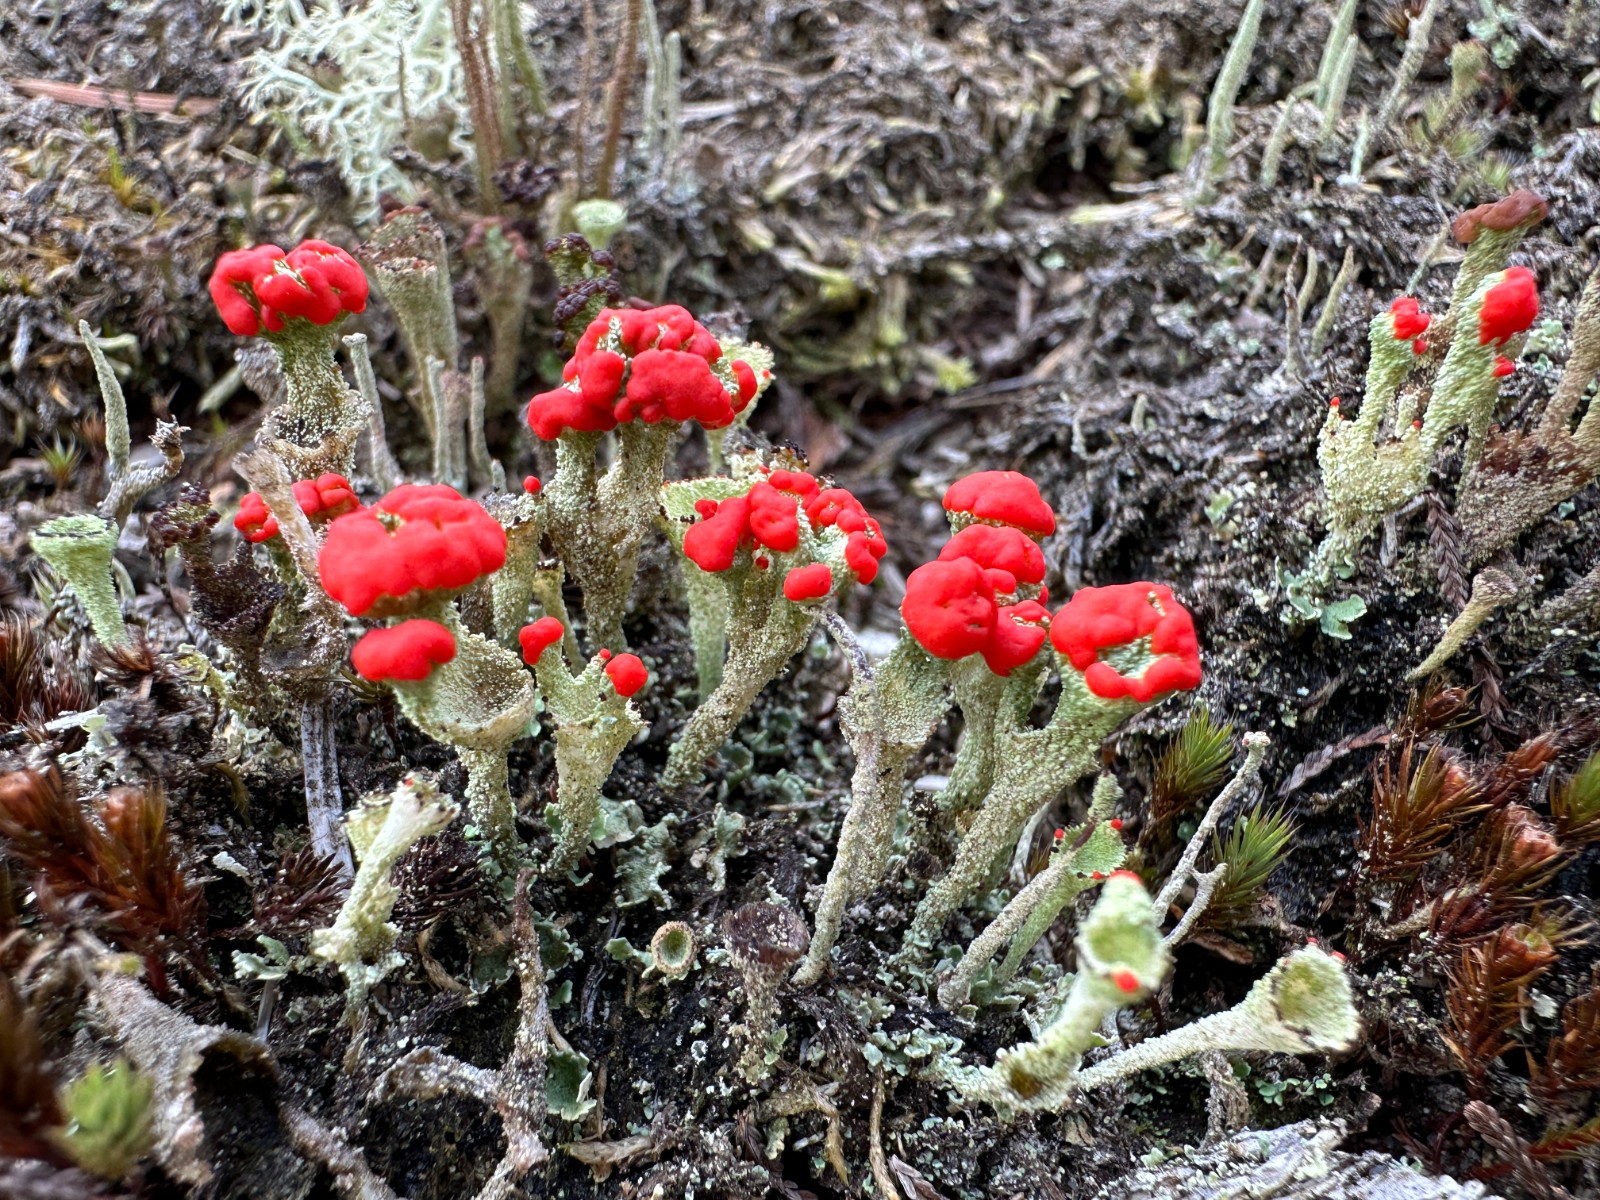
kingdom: Fungi
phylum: Ascomycota
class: Lecanoromycetes
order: Lecanorales
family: Cladoniaceae
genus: Cladonia
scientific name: Cladonia diversa
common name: rød bægerlav
